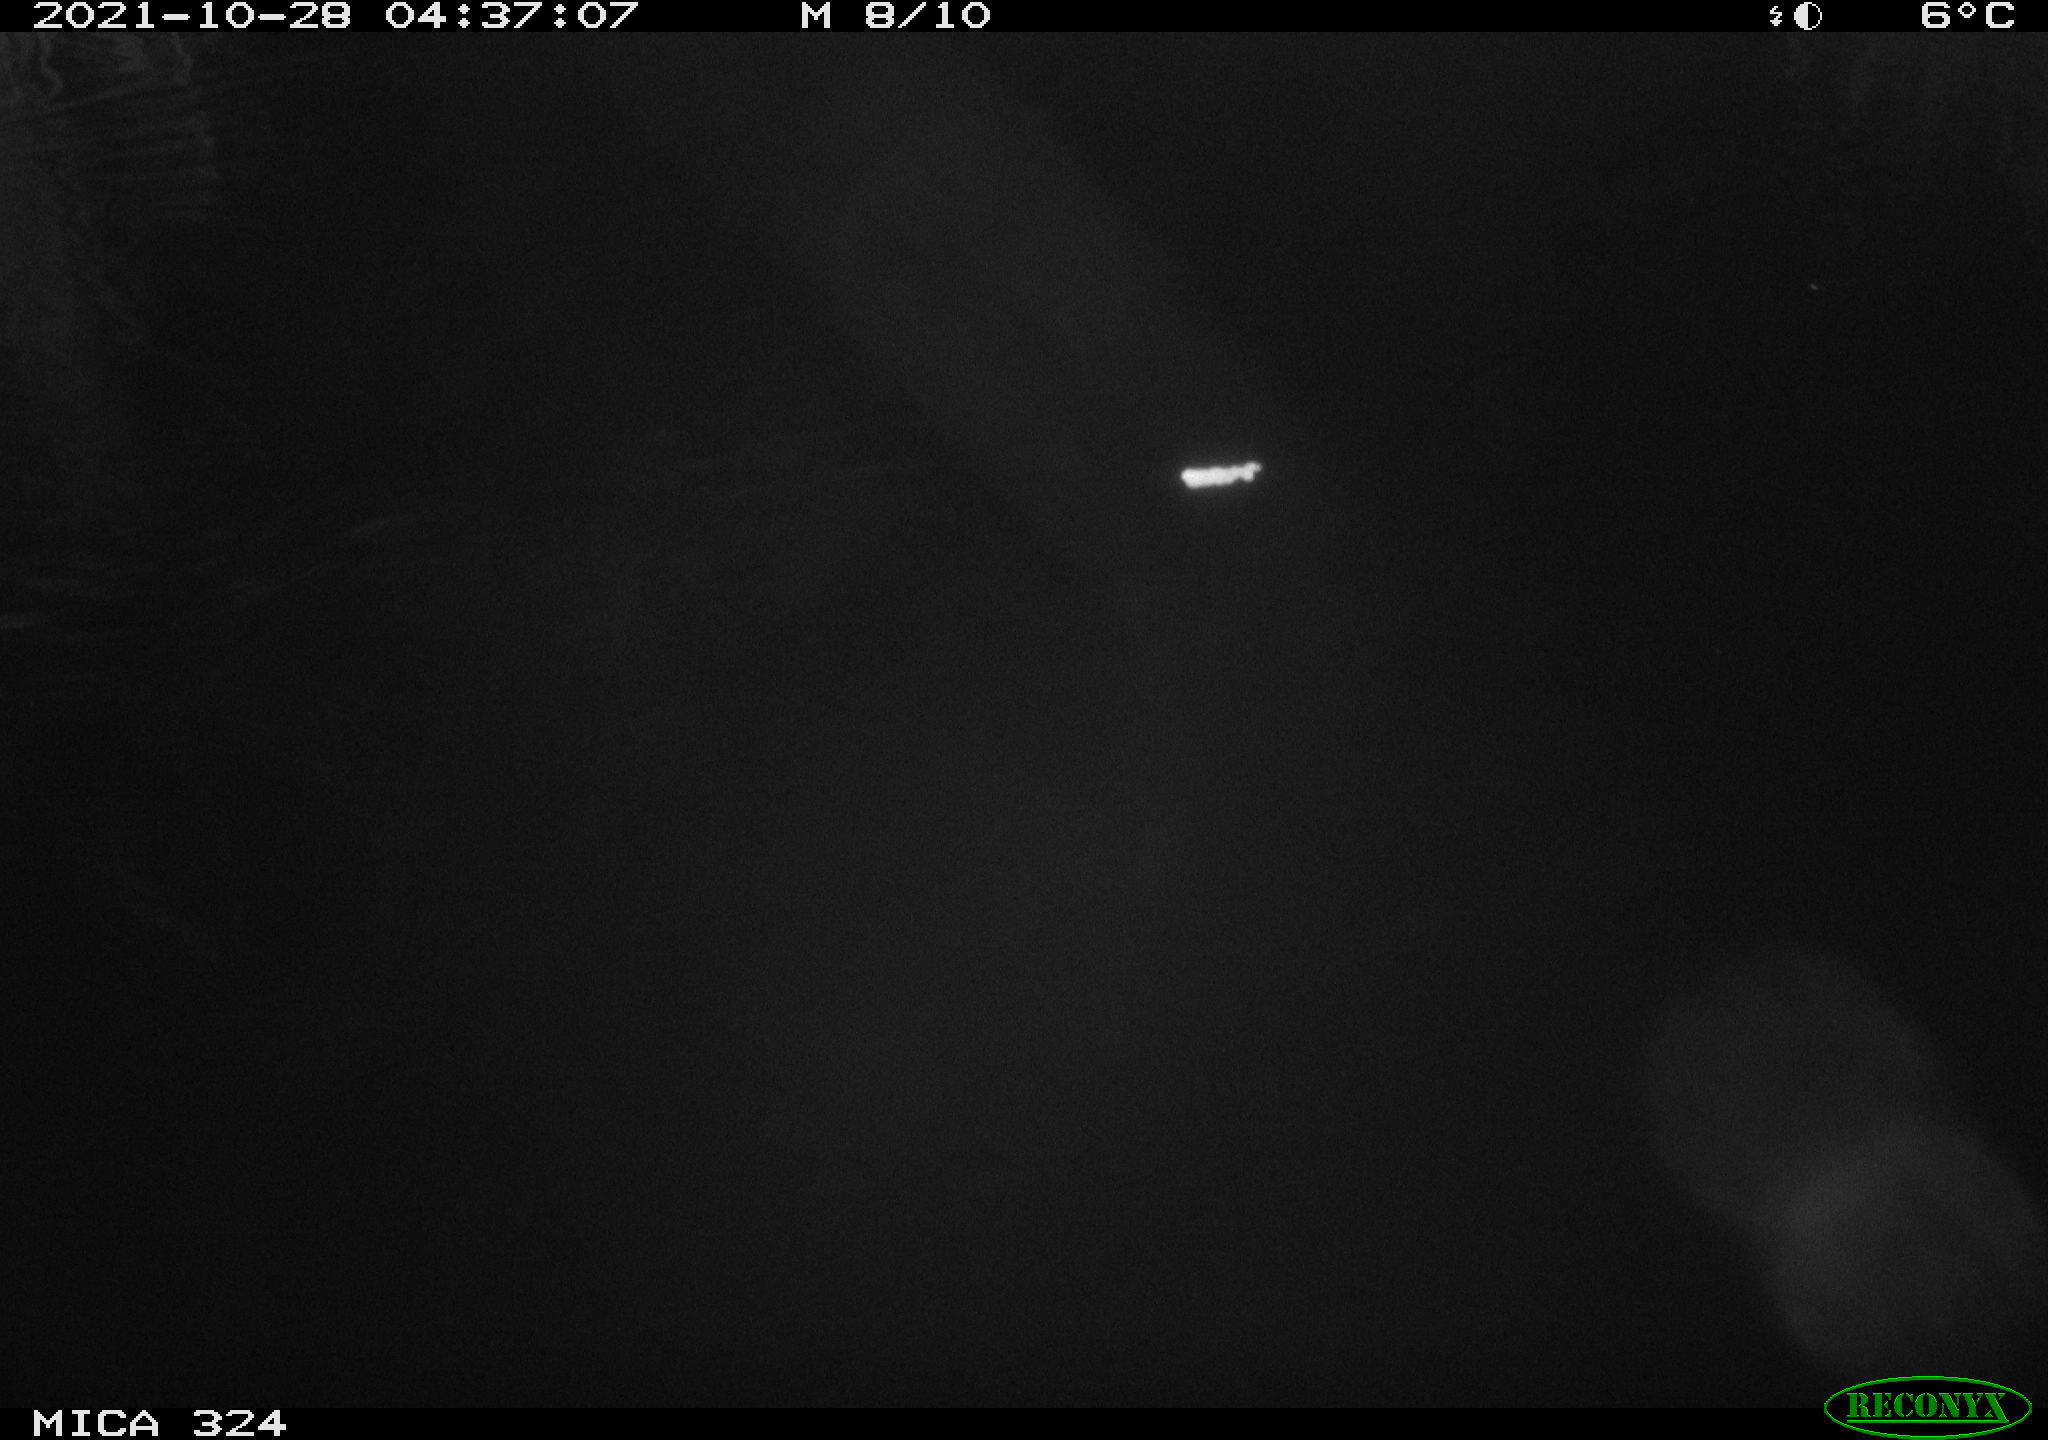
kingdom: Animalia
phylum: Chordata
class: Mammalia
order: Rodentia
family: Cricetidae
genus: Ondatra
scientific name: Ondatra zibethicus
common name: Muskrat
